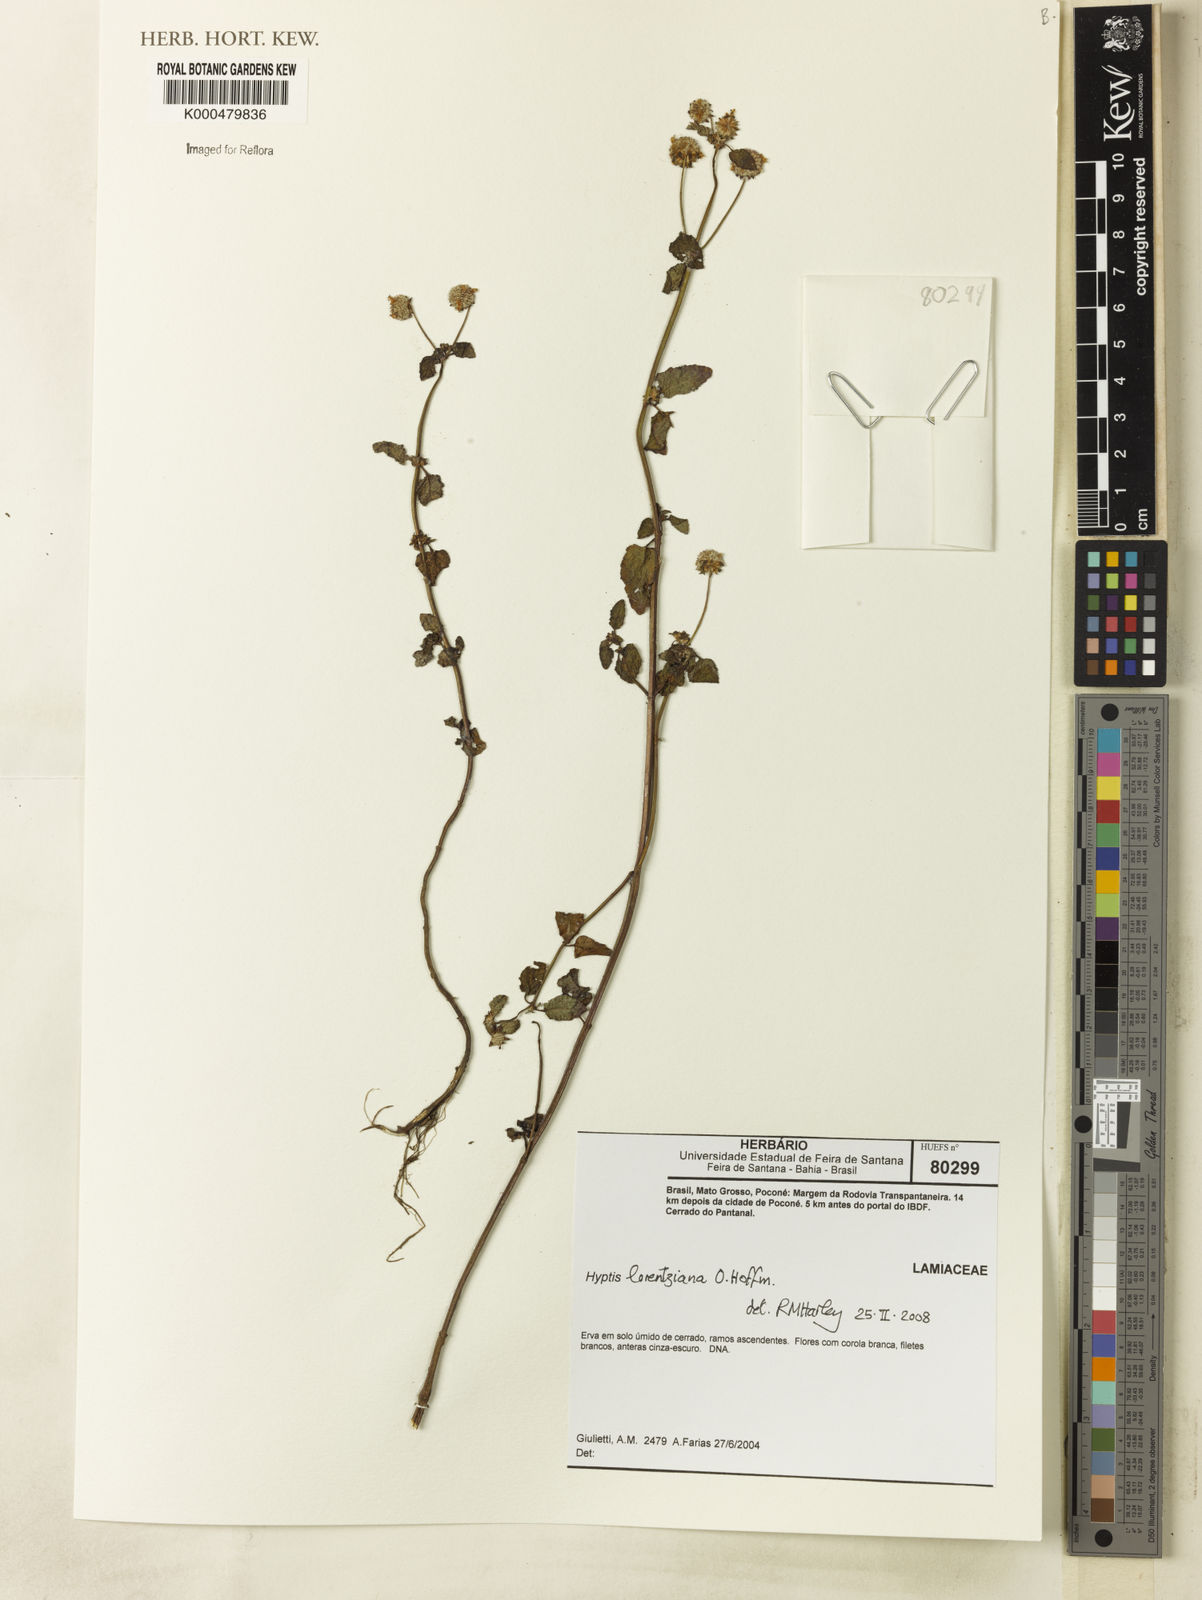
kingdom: Plantae
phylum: Tracheophyta
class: Magnoliopsida
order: Lamiales
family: Lamiaceae
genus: Hyptis
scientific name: Hyptis lorentziana
